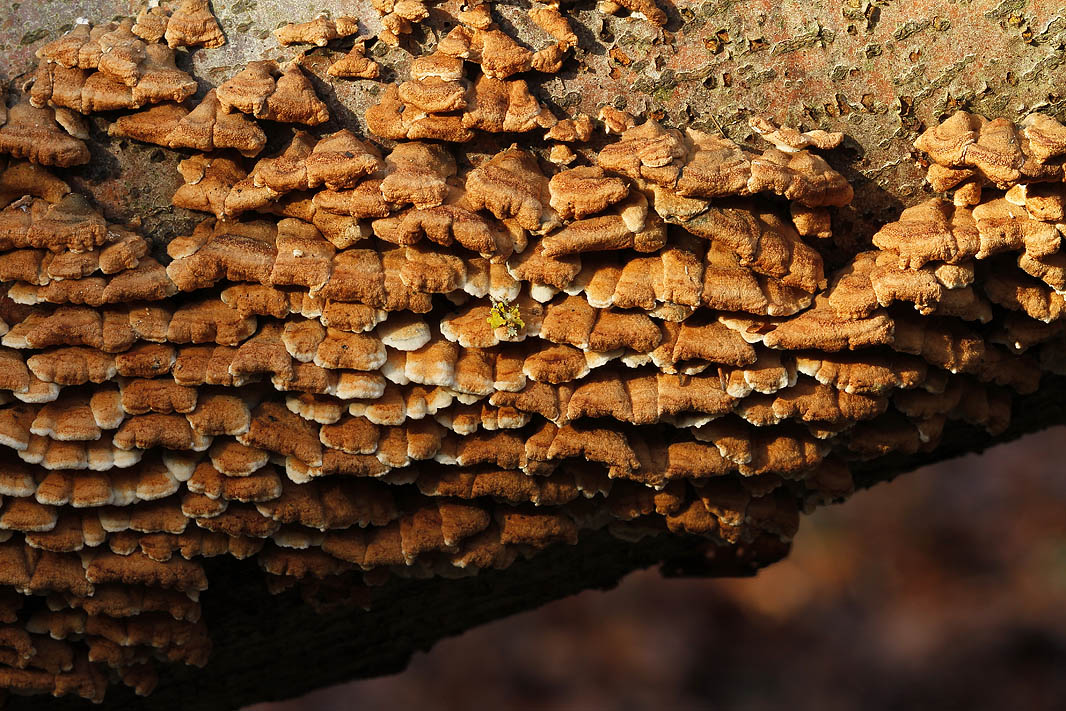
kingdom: Fungi
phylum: Basidiomycota
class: Agaricomycetes
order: Amylocorticiales
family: Amylocorticiaceae
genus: Plicaturopsis
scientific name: Plicaturopsis crispa
